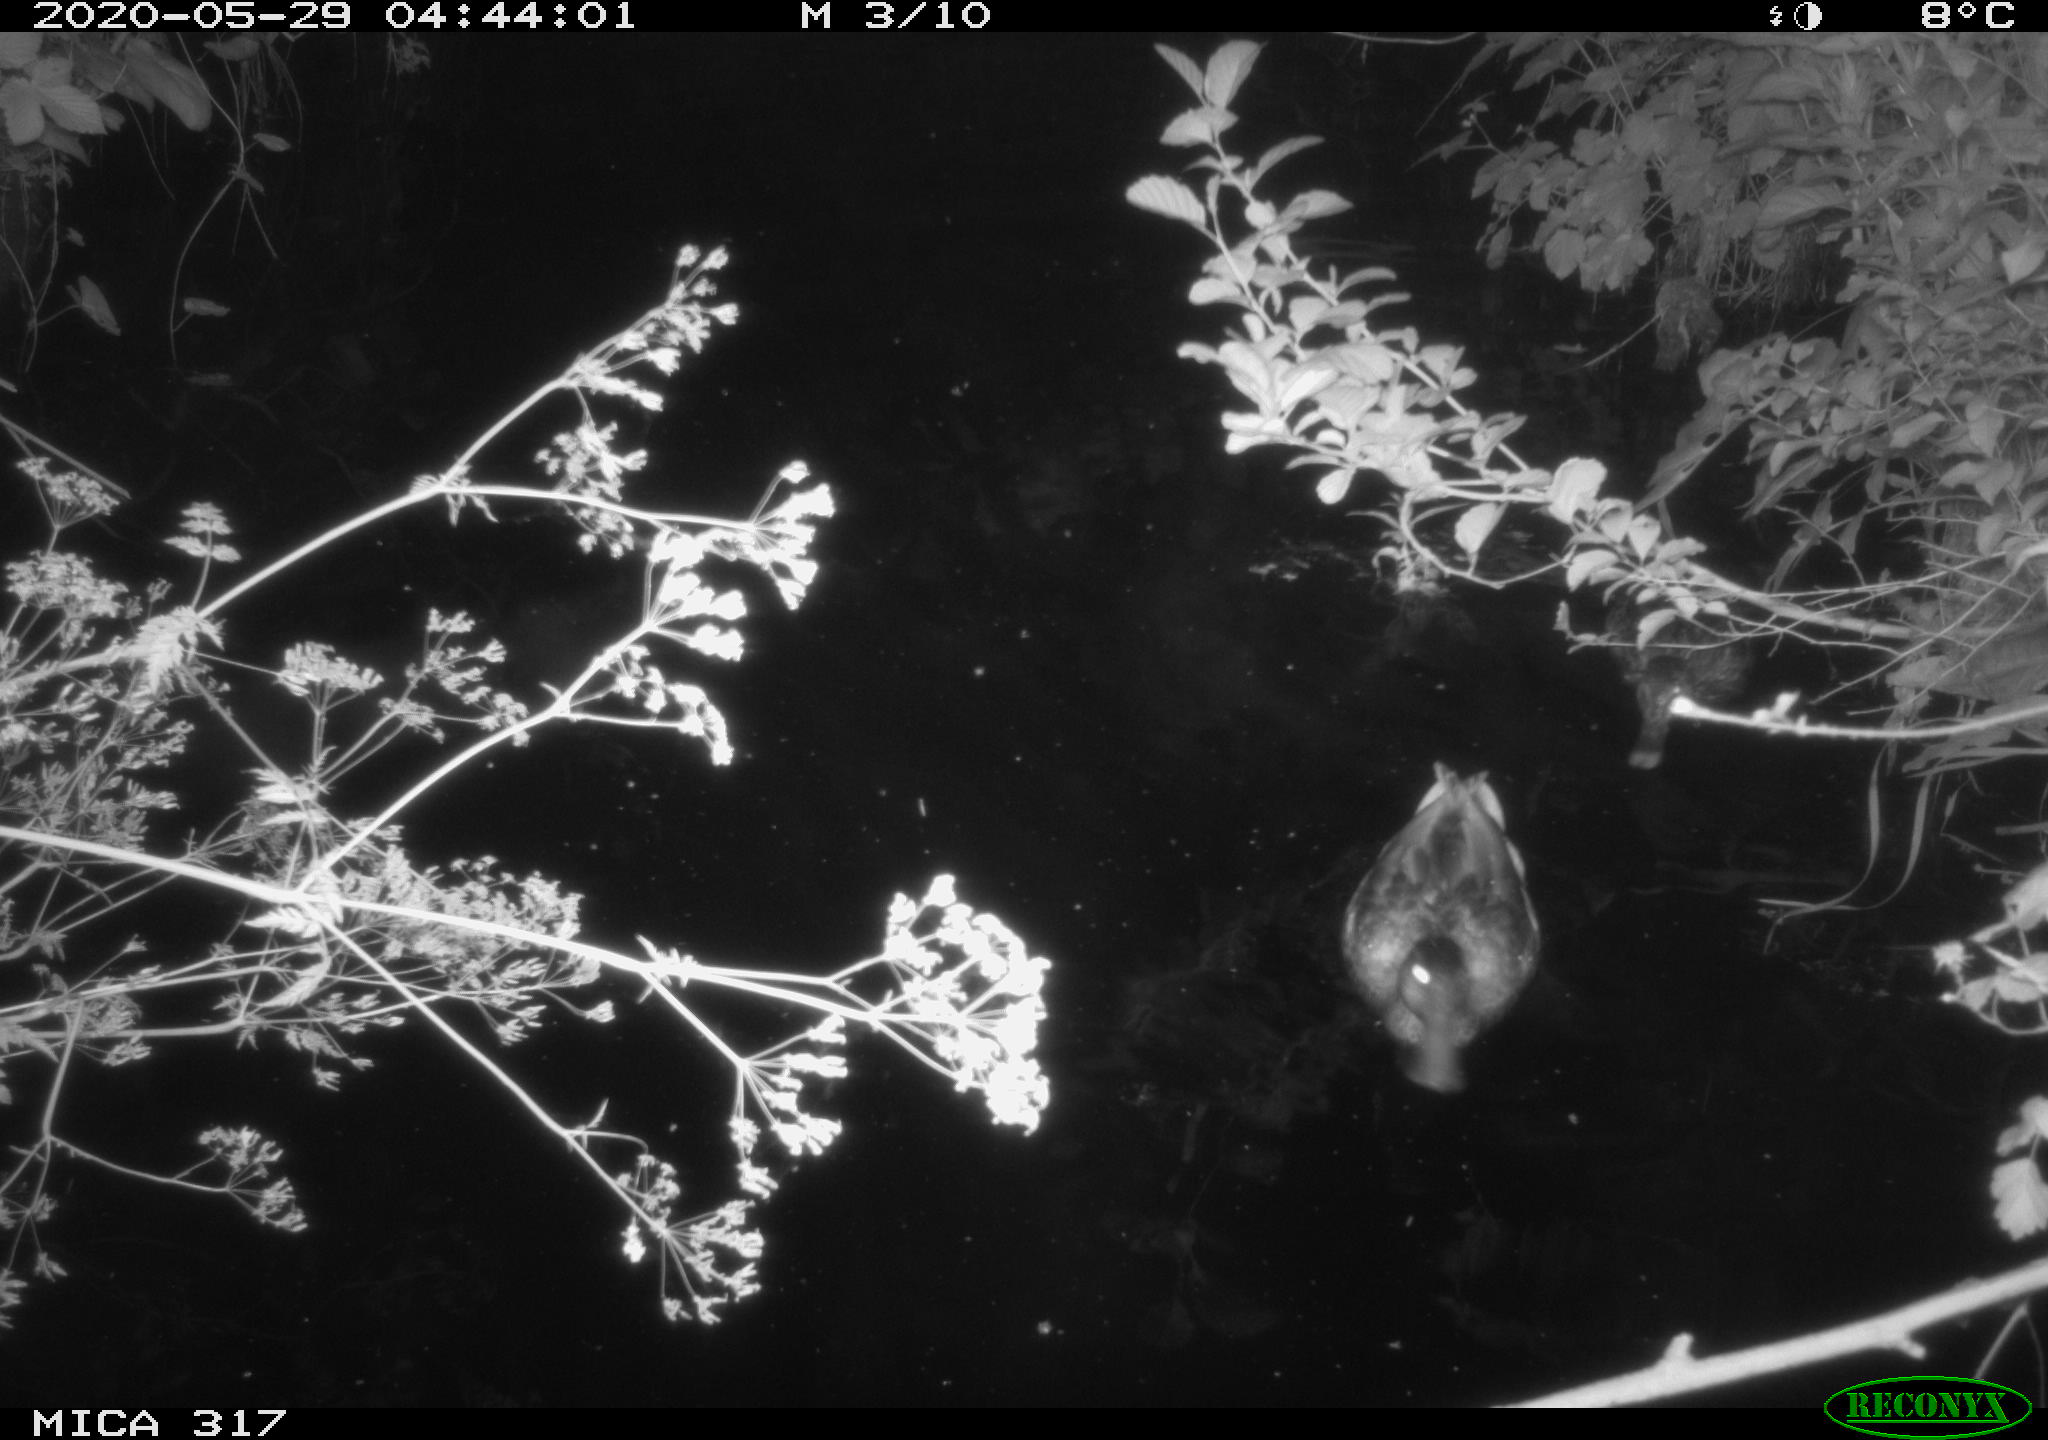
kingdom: Animalia
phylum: Chordata
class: Aves
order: Anseriformes
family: Anatidae
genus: Anas
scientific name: Anas platyrhynchos
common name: Mallard
